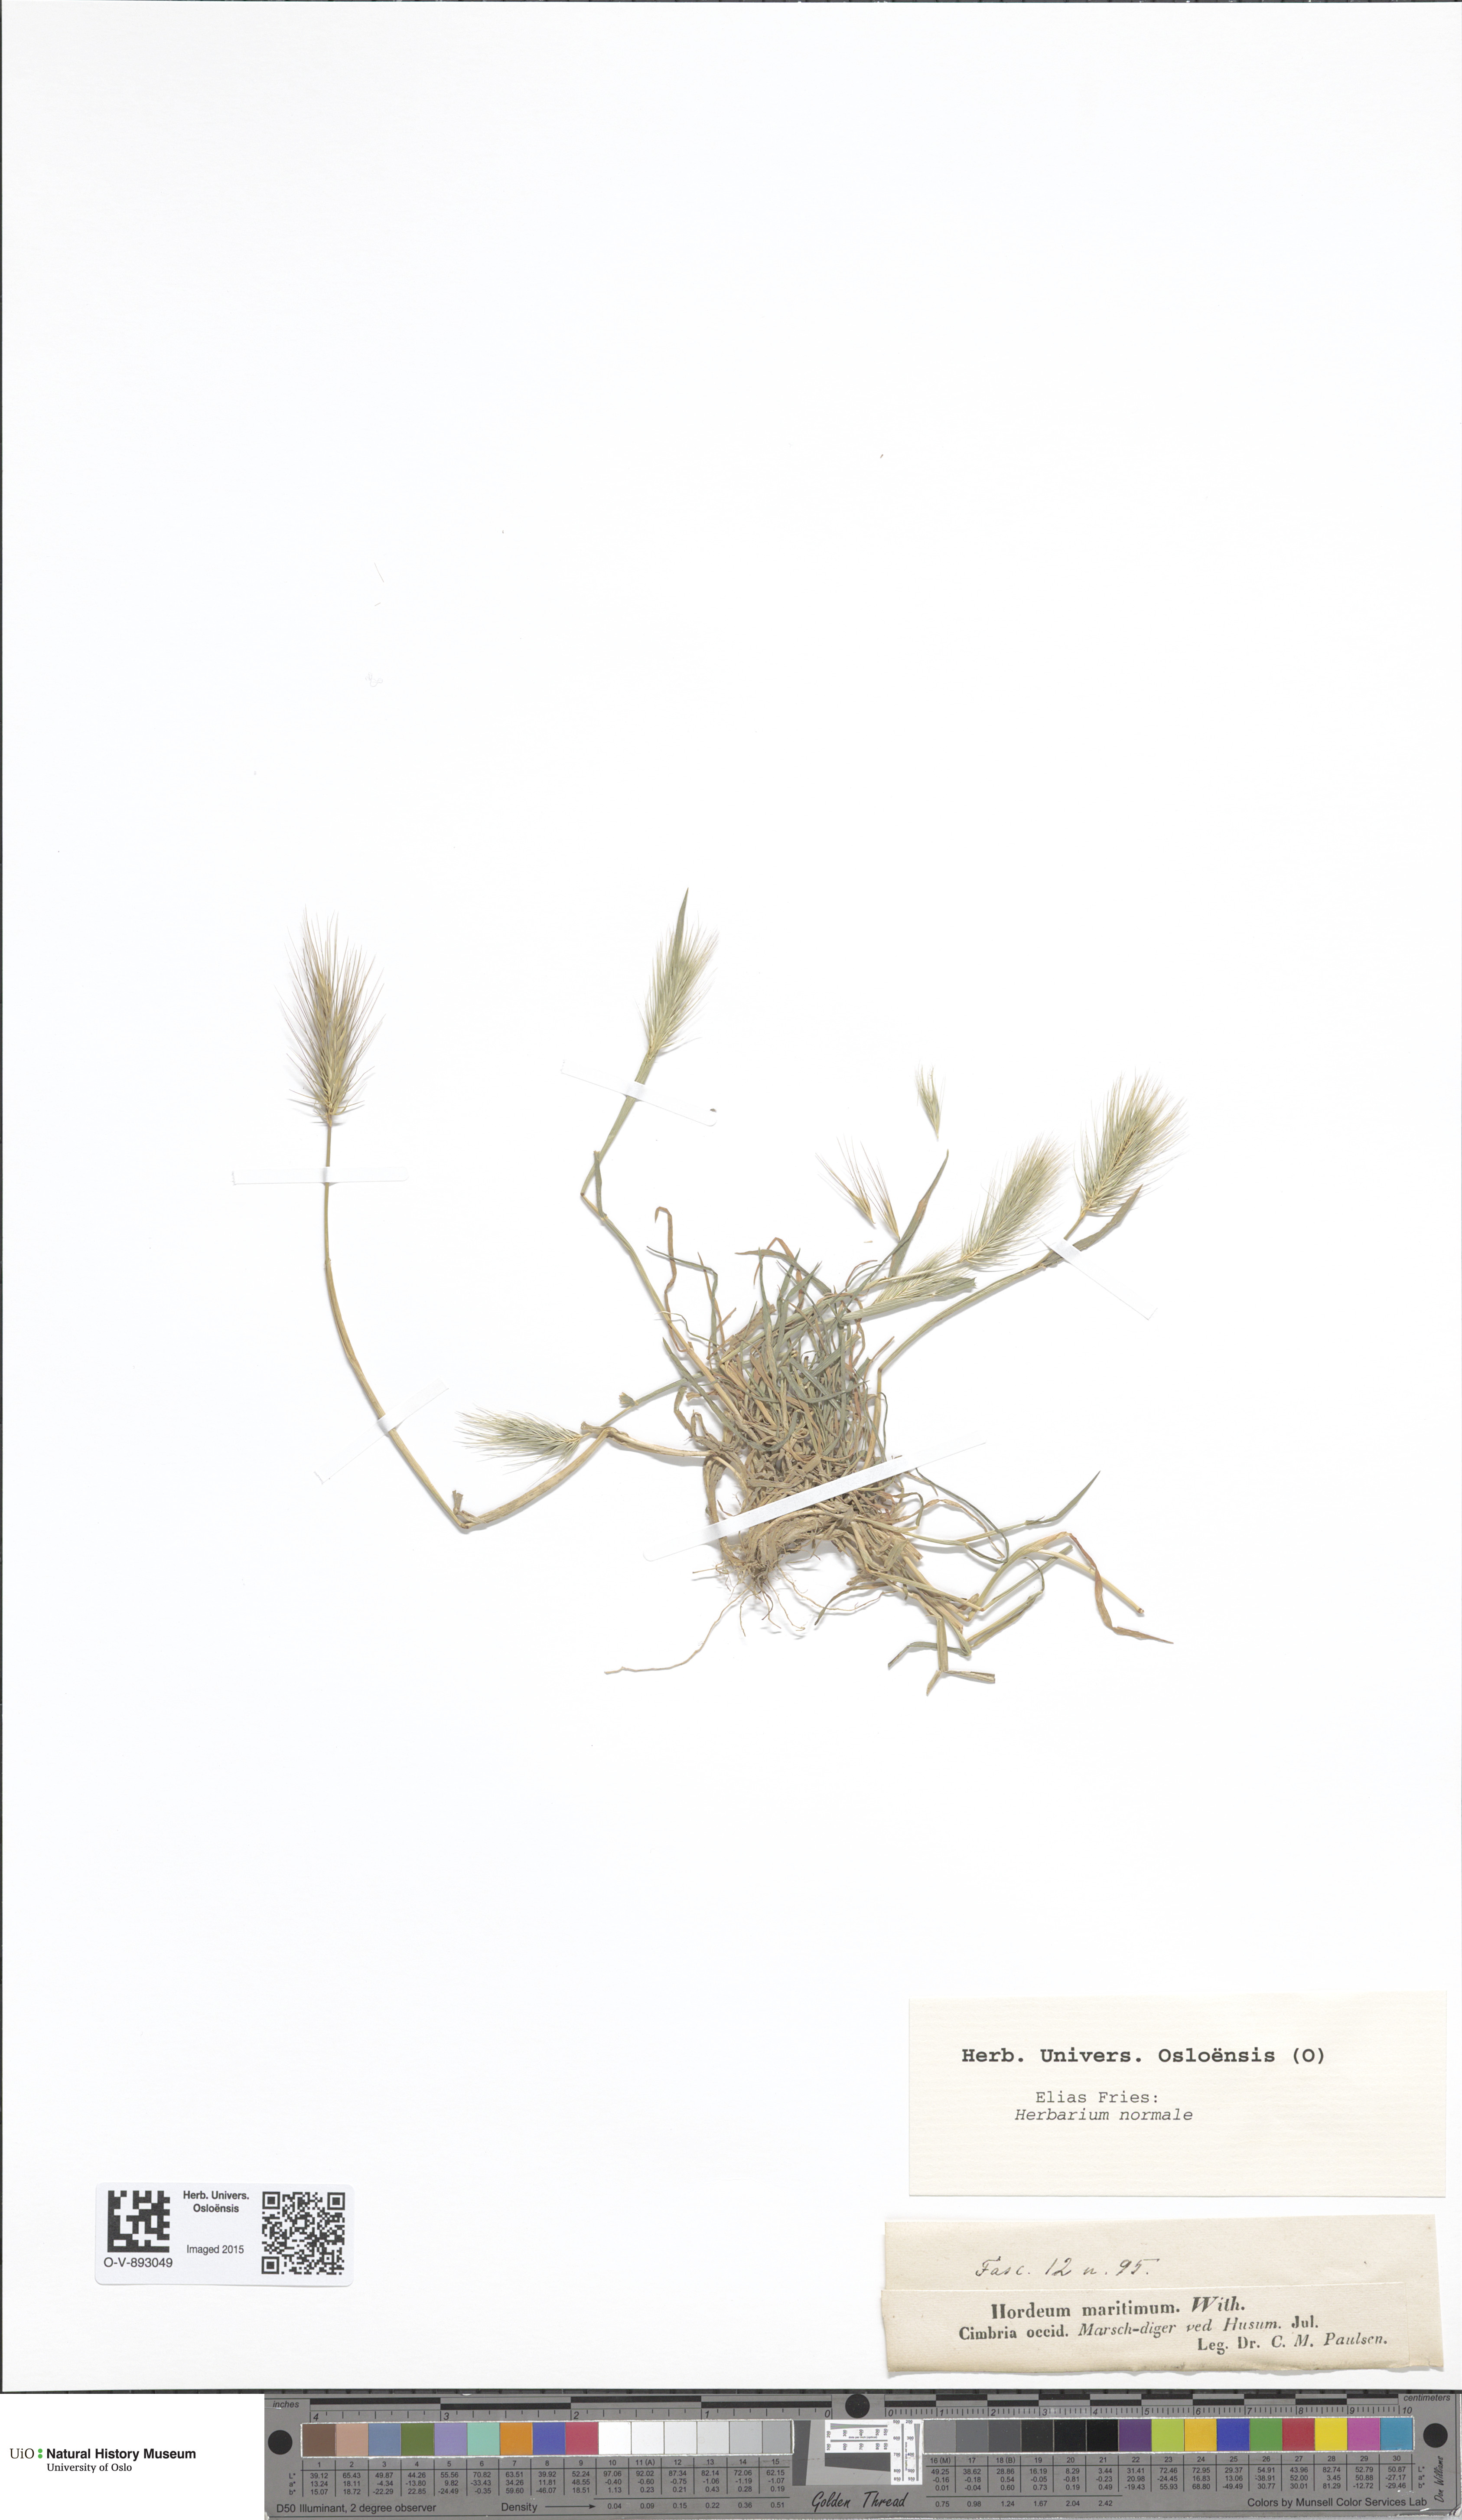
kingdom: Plantae
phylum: Tracheophyta
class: Liliopsida
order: Poales
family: Poaceae
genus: Hordeum
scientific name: Hordeum marinum
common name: Sea barley
